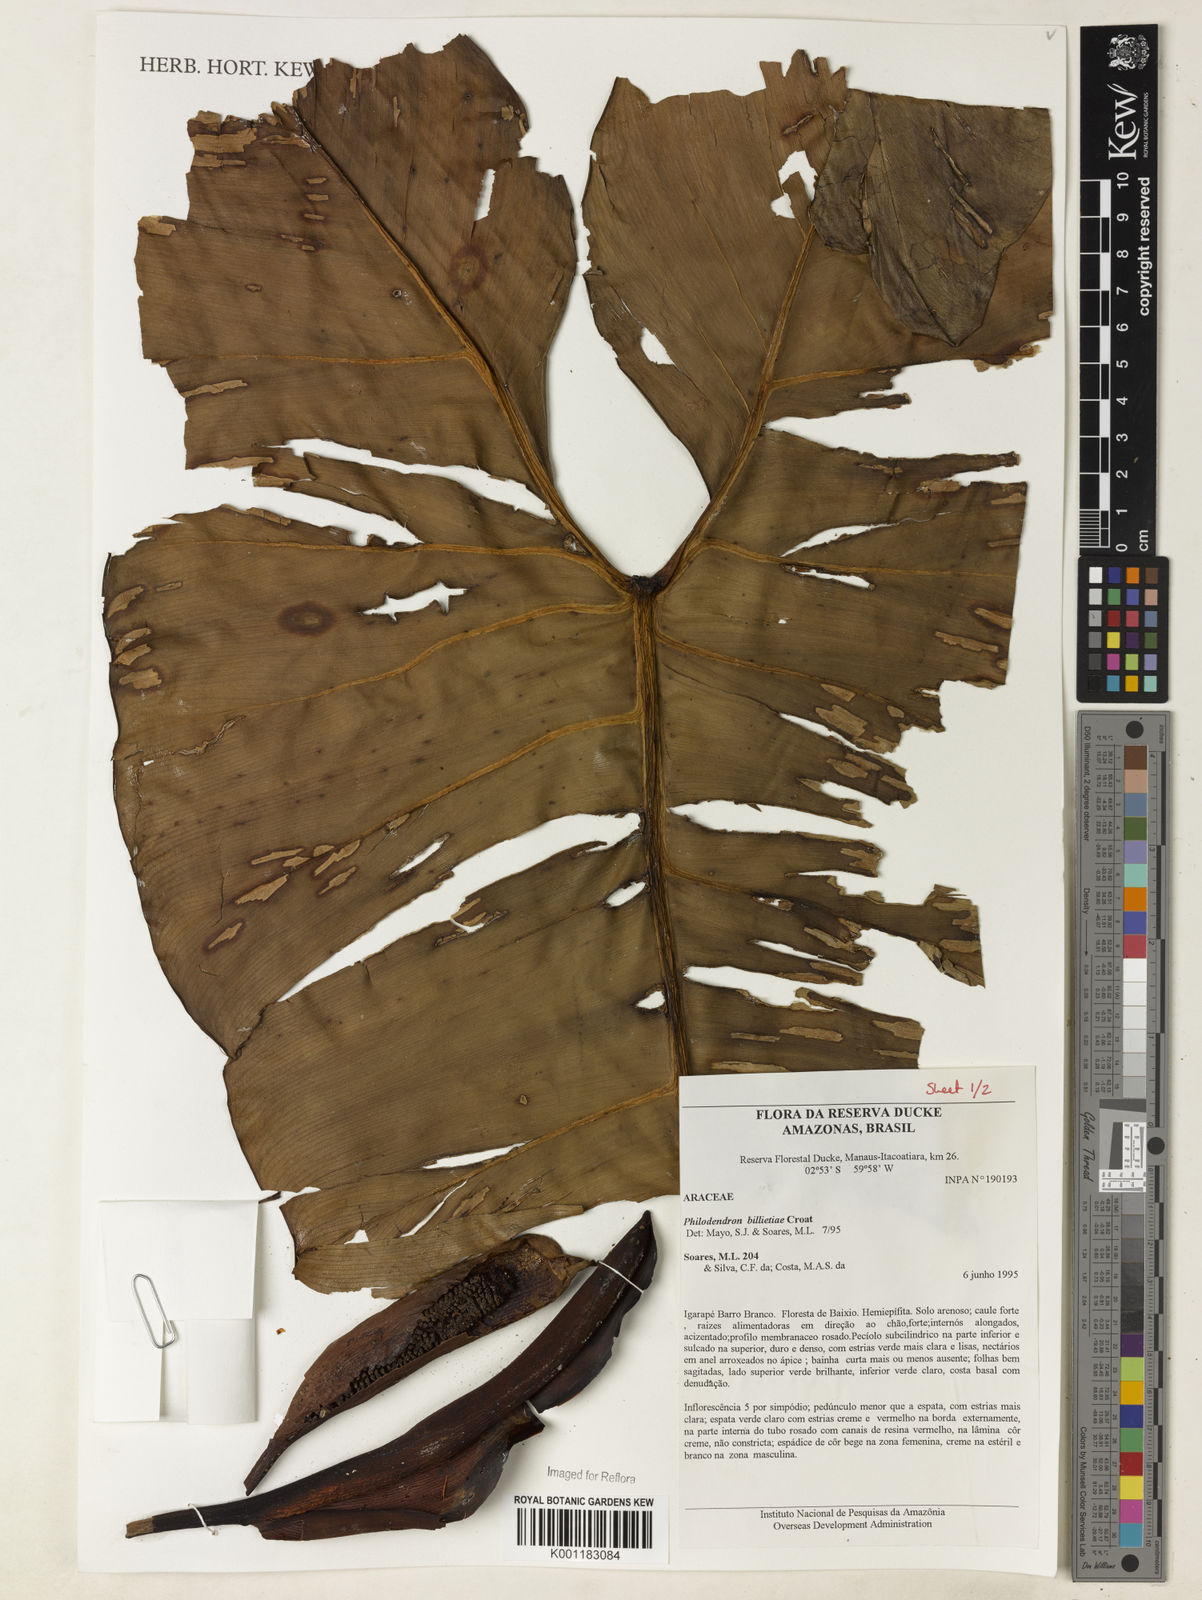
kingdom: Plantae
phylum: Tracheophyta
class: Liliopsida
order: Alismatales
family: Araceae
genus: Philodendron
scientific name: Philodendron billietiae
